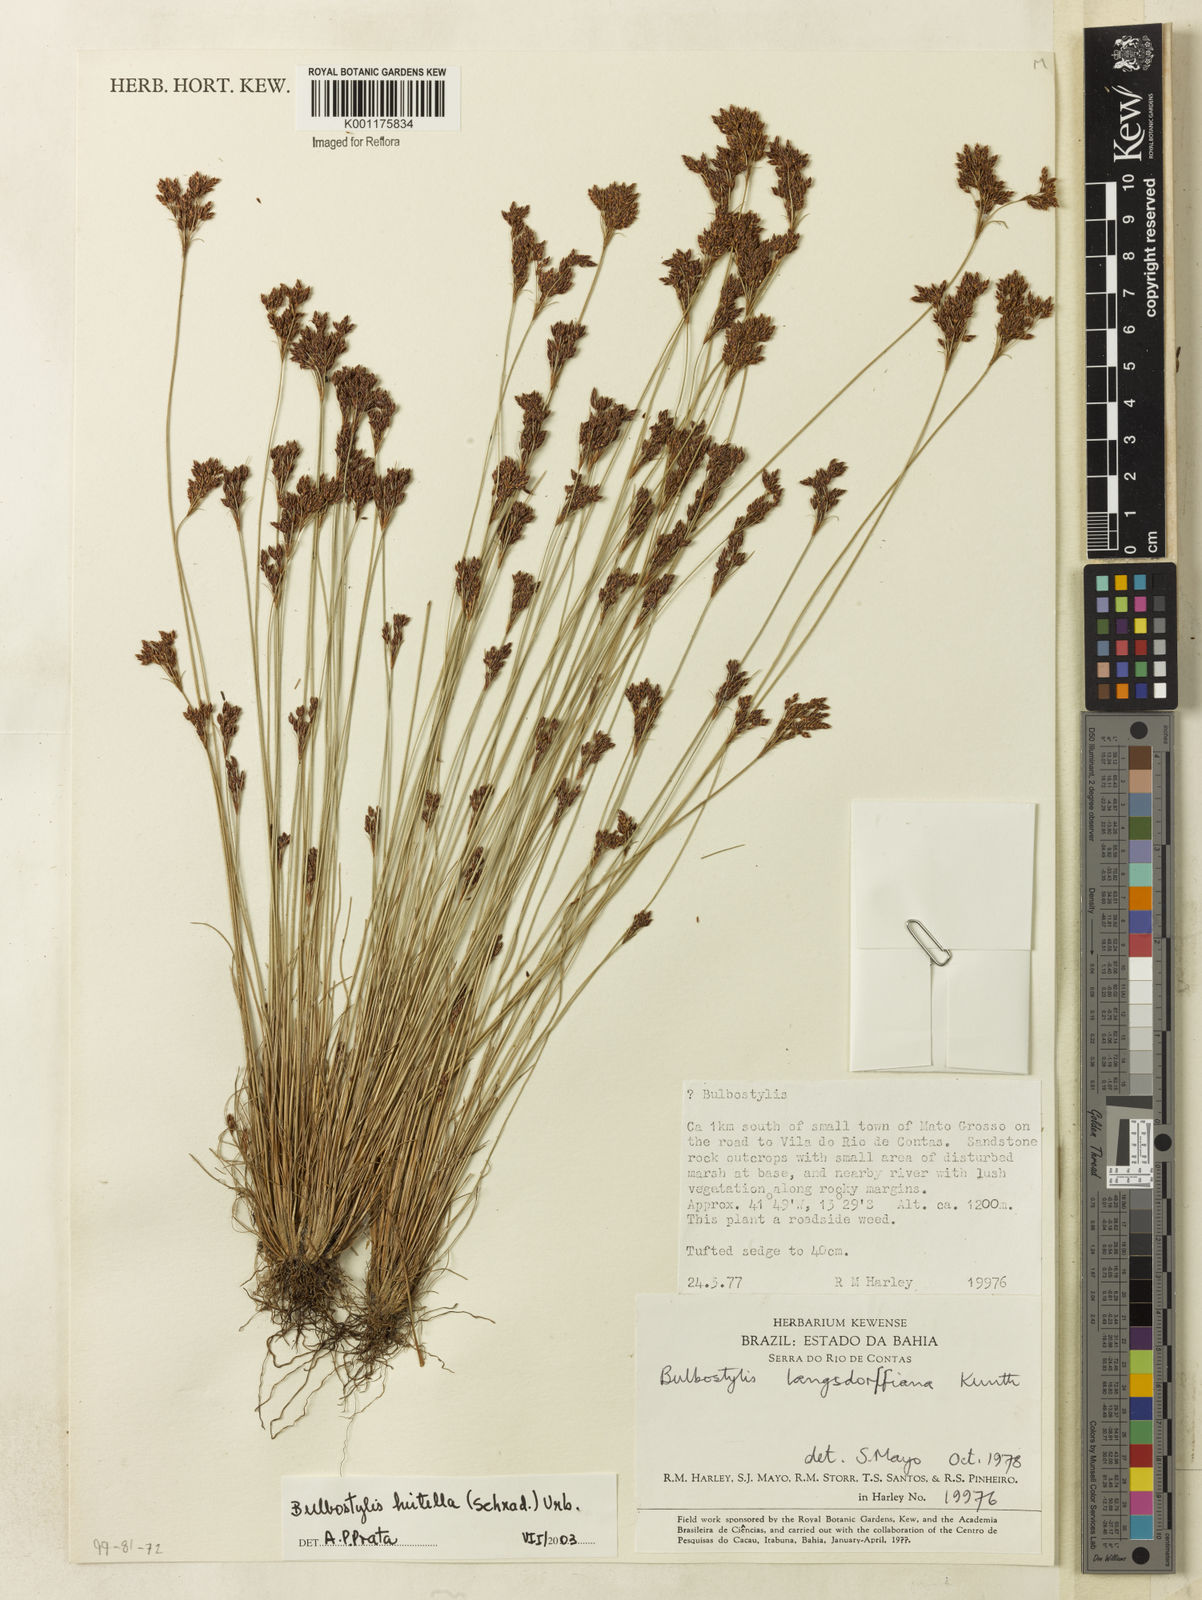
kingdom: Plantae
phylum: Tracheophyta
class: Liliopsida
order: Poales
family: Cyperaceae
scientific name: Cyperaceae
